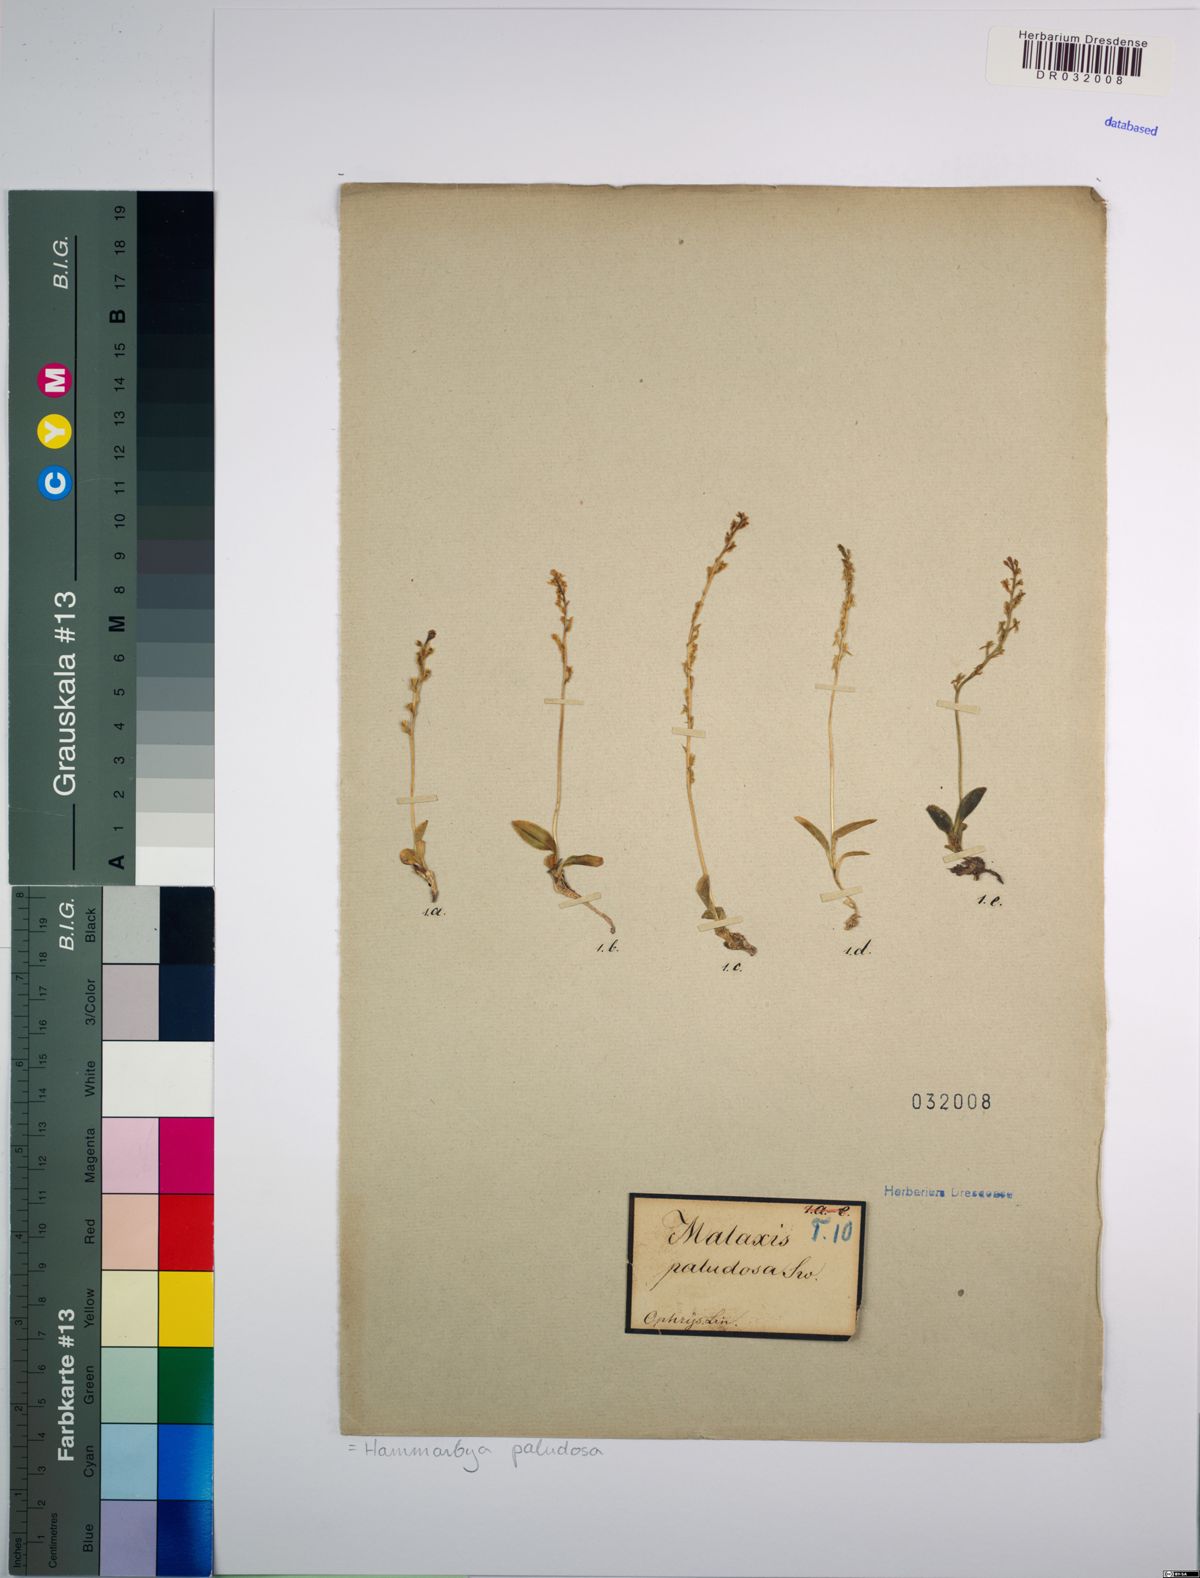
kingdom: Plantae
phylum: Tracheophyta
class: Liliopsida
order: Asparagales
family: Orchidaceae
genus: Hammarbya
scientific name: Hammarbya paludosa
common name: Bog orchid
